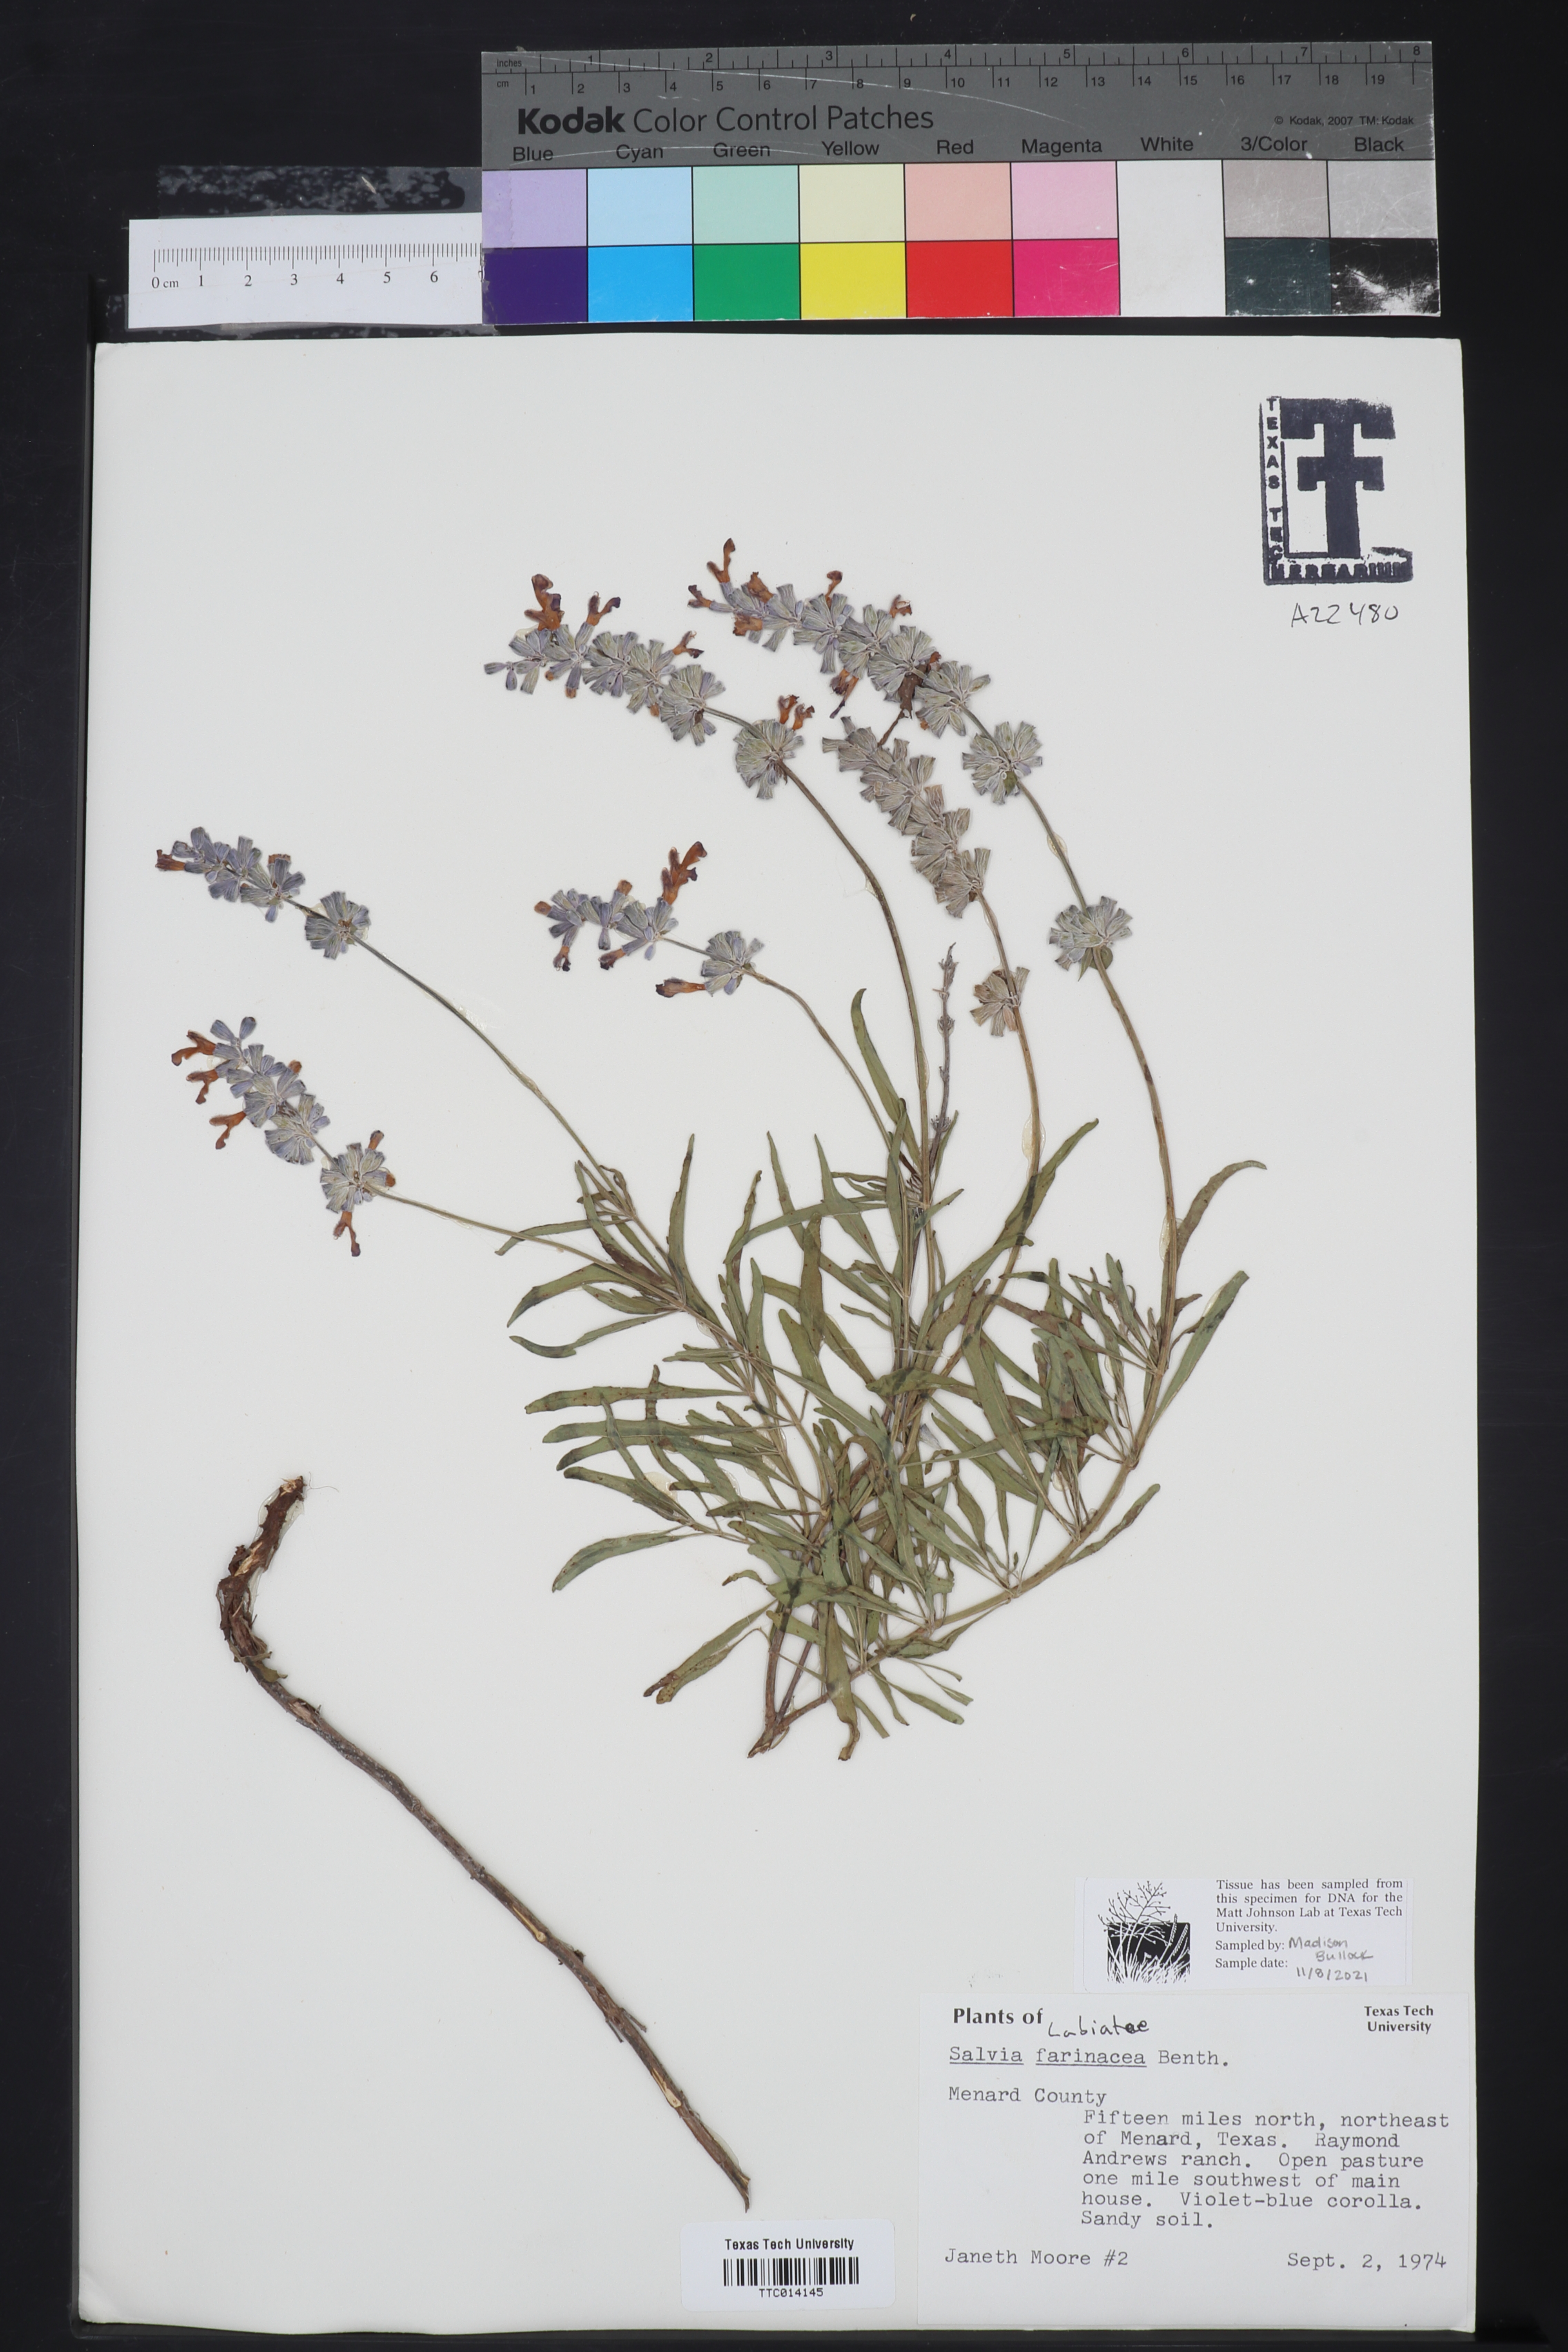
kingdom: Plantae
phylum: Tracheophyta
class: Magnoliopsida
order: Lamiales
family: Lamiaceae
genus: Salvia
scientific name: Salvia farinacea
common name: Mealy sage
